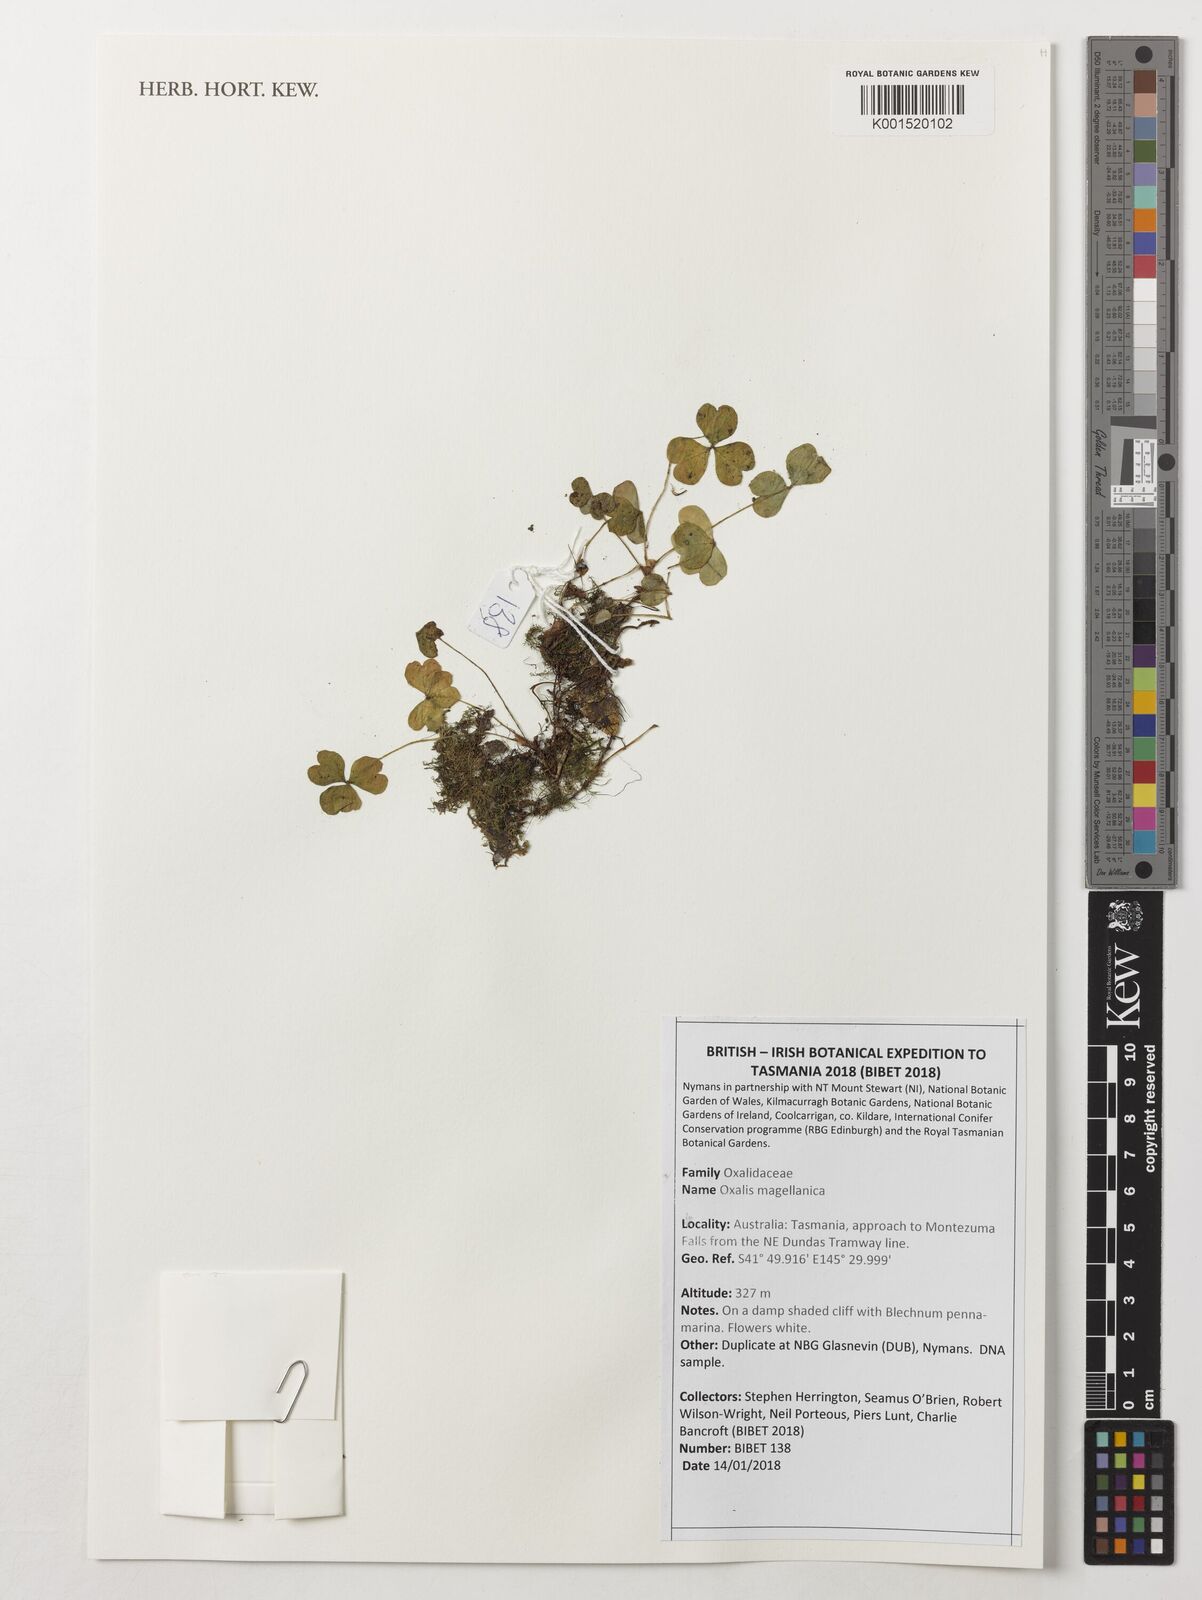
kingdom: Plantae
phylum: Tracheophyta
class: Magnoliopsida
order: Oxalidales
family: Oxalidaceae
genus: Oxalis
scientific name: Oxalis magellanica
